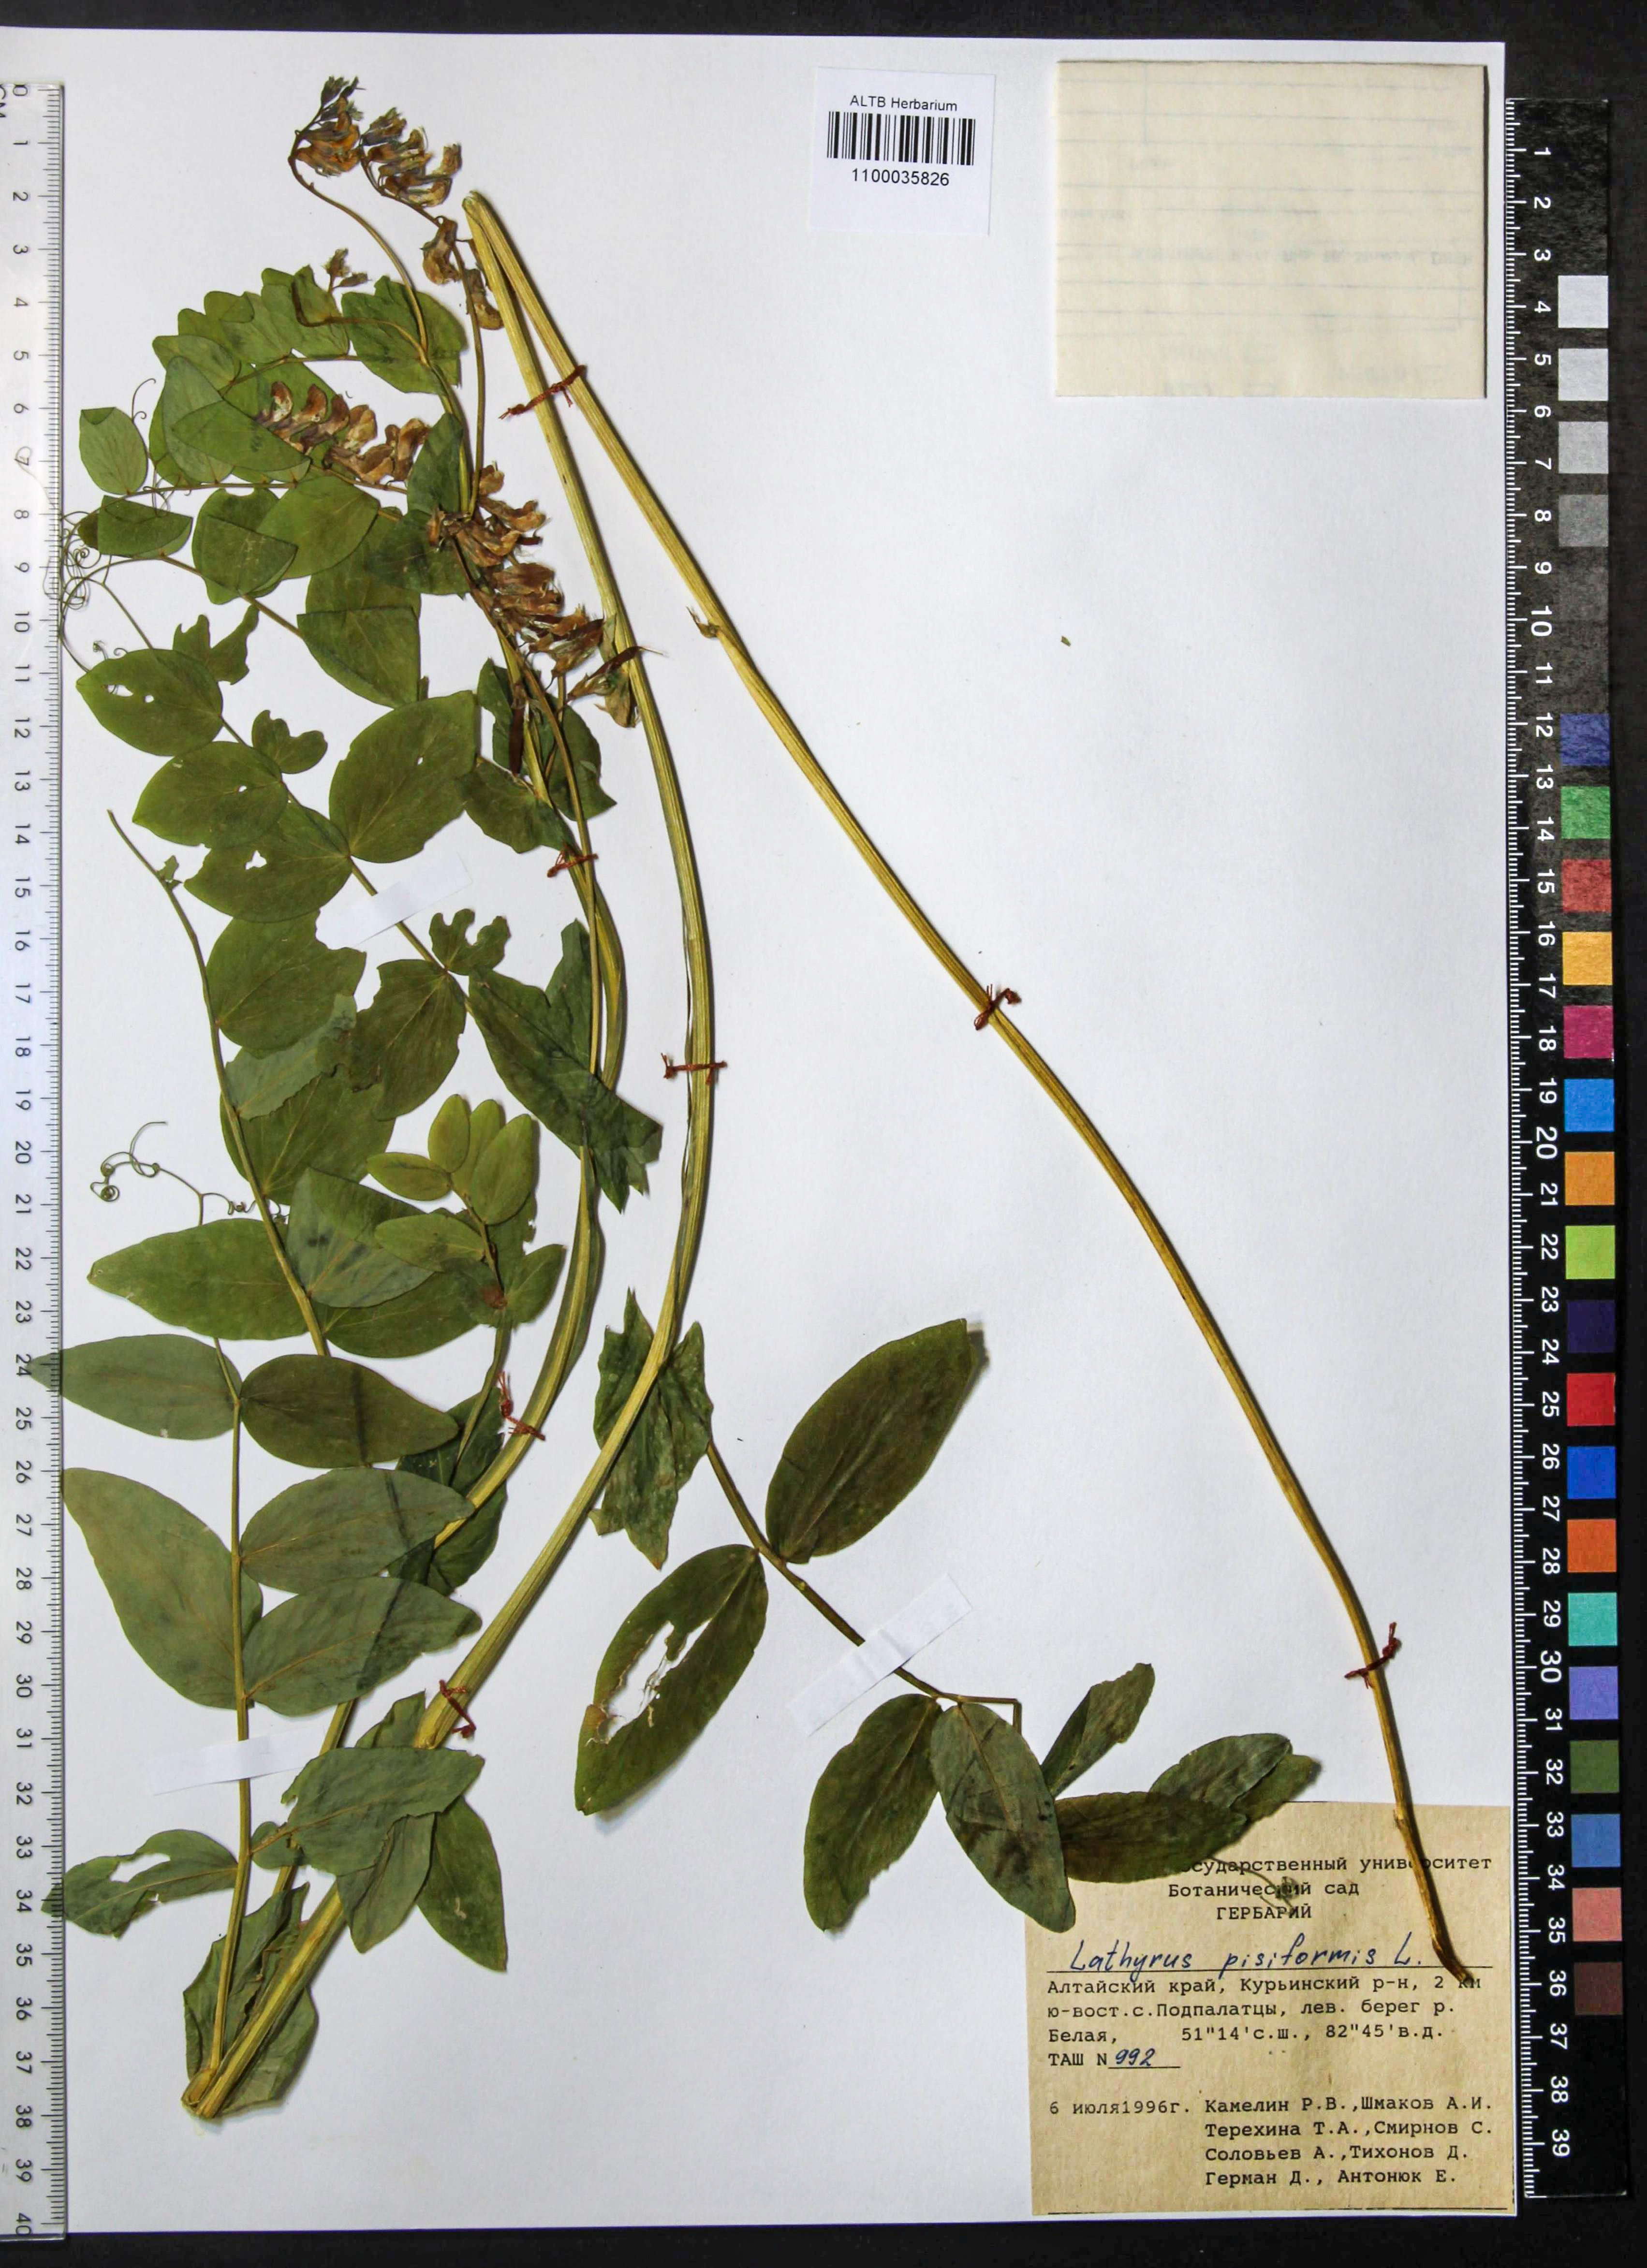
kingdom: Plantae
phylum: Tracheophyta
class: Magnoliopsida
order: Fabales
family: Fabaceae
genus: Lathyrus
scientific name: Lathyrus pisiformis
